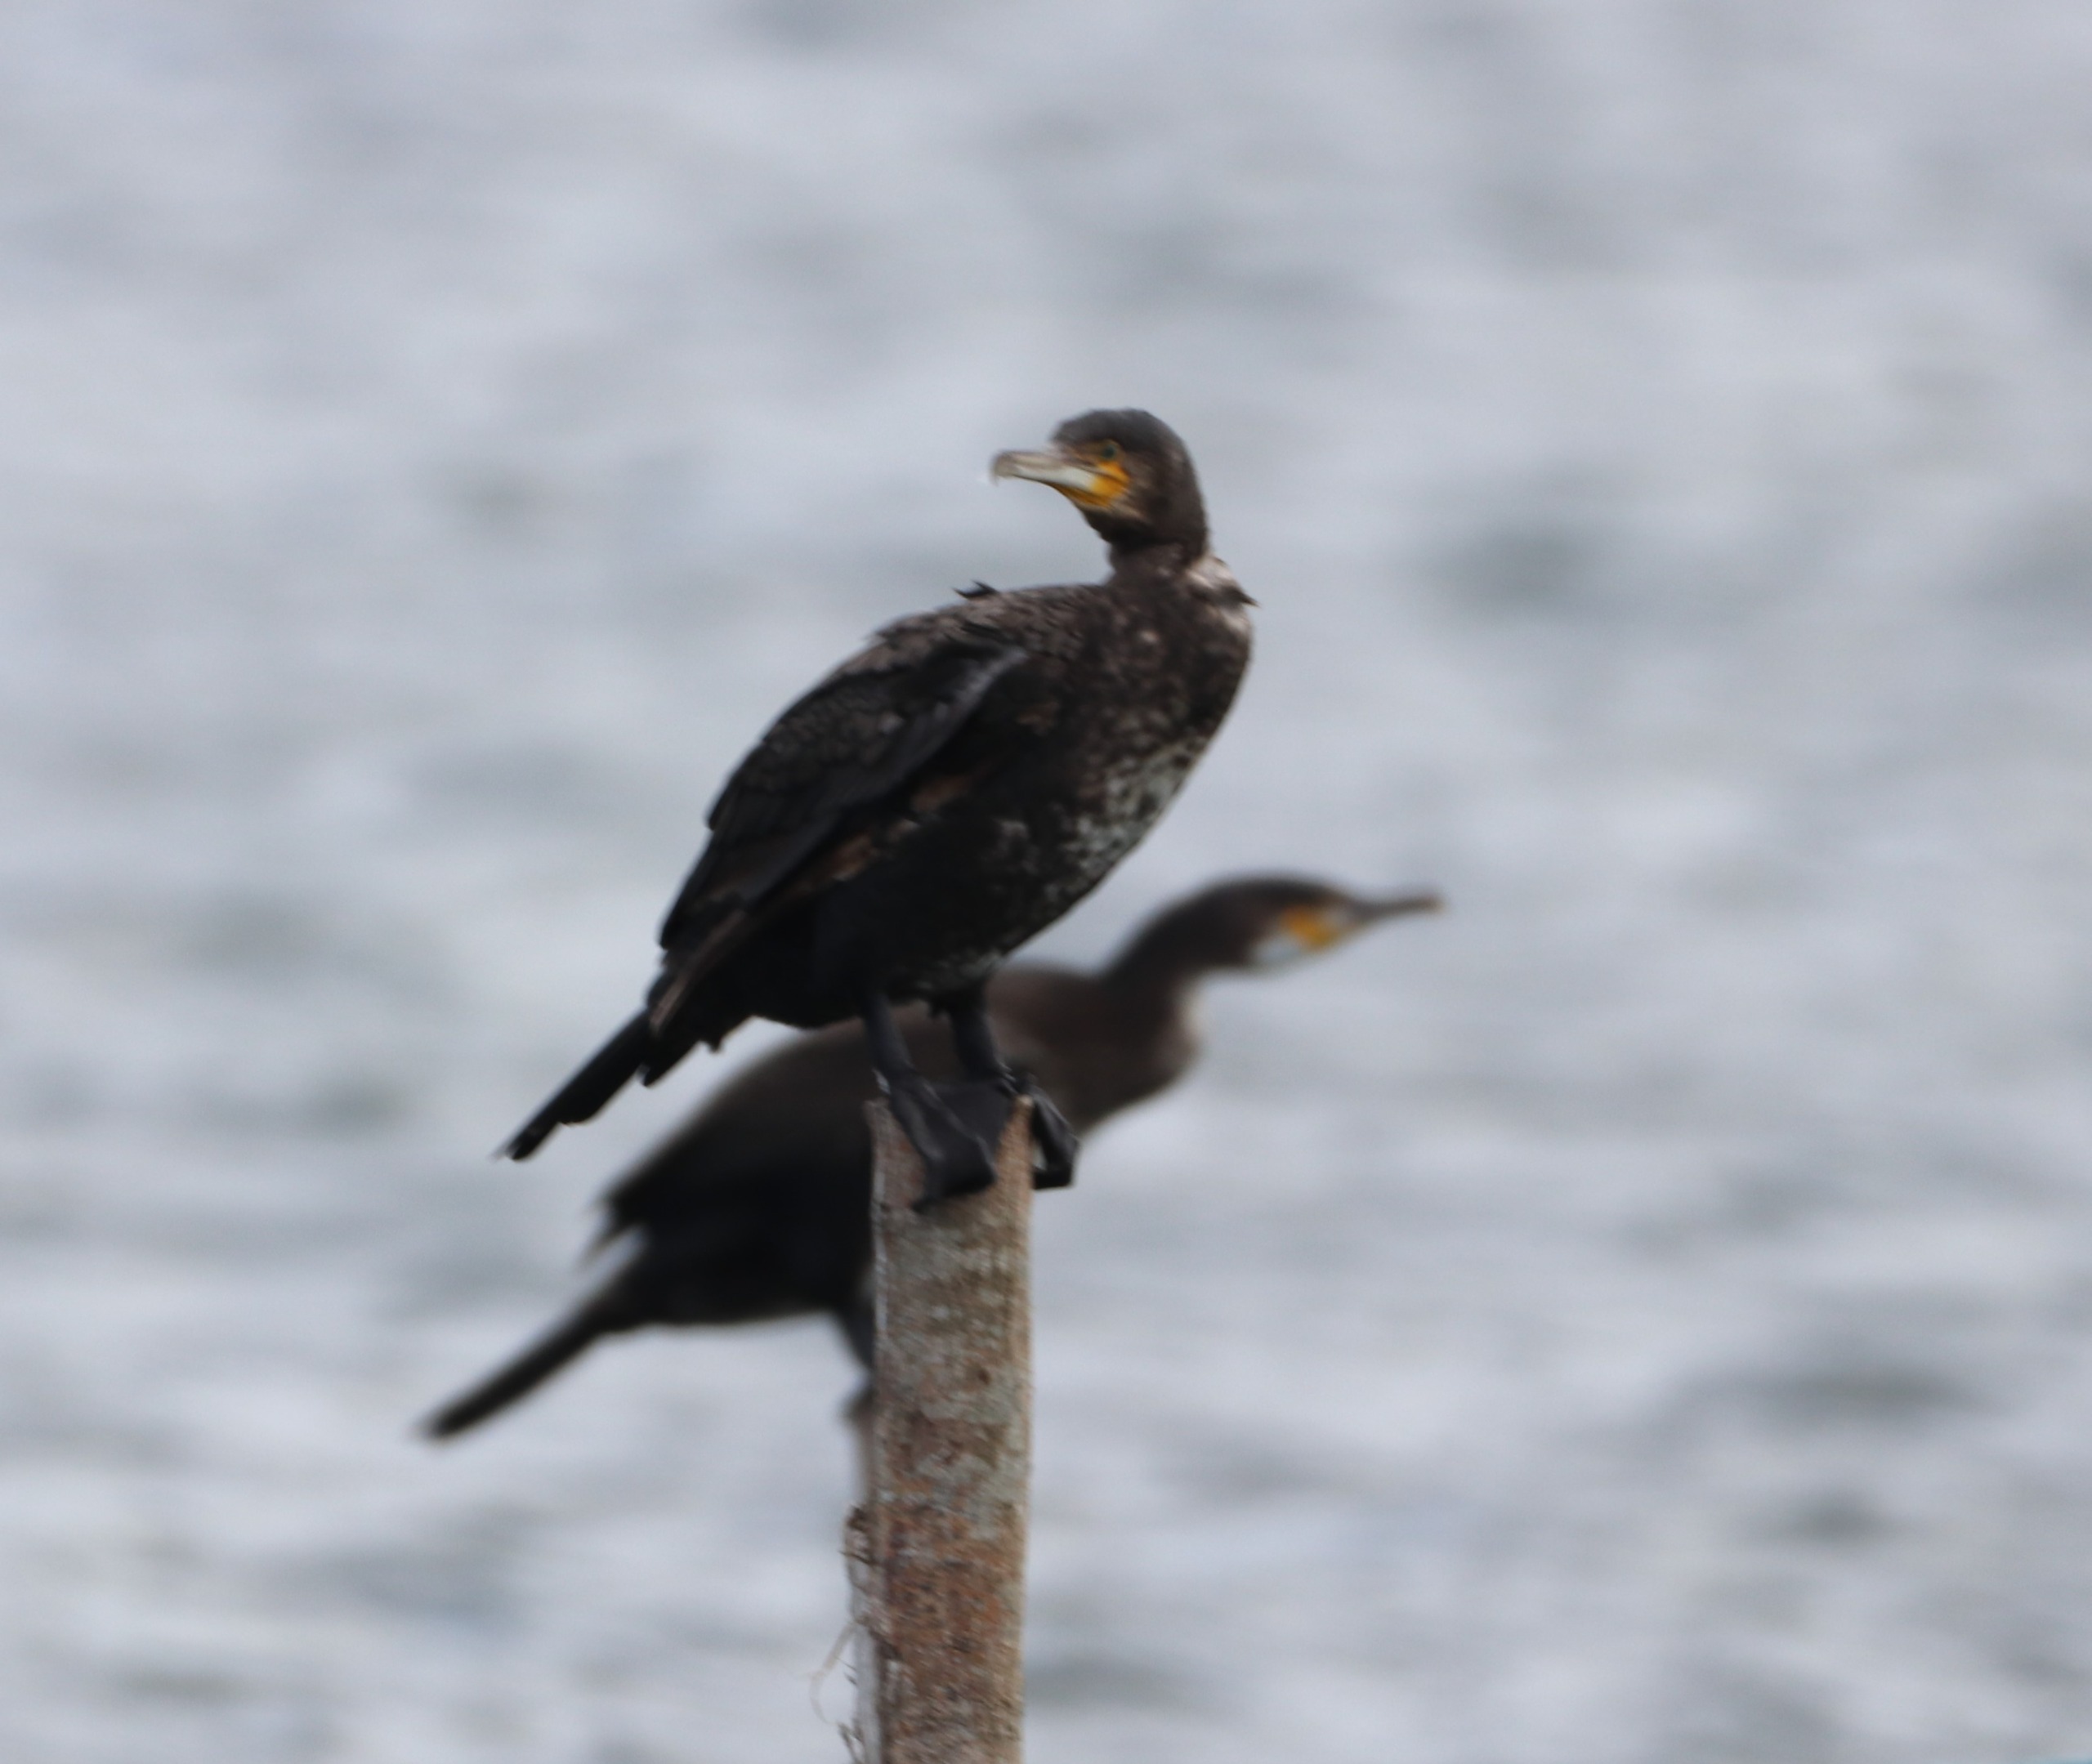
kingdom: Animalia
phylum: Chordata
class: Aves
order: Suliformes
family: Phalacrocoracidae
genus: Phalacrocorax
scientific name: Phalacrocorax carbo
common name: Skarv
